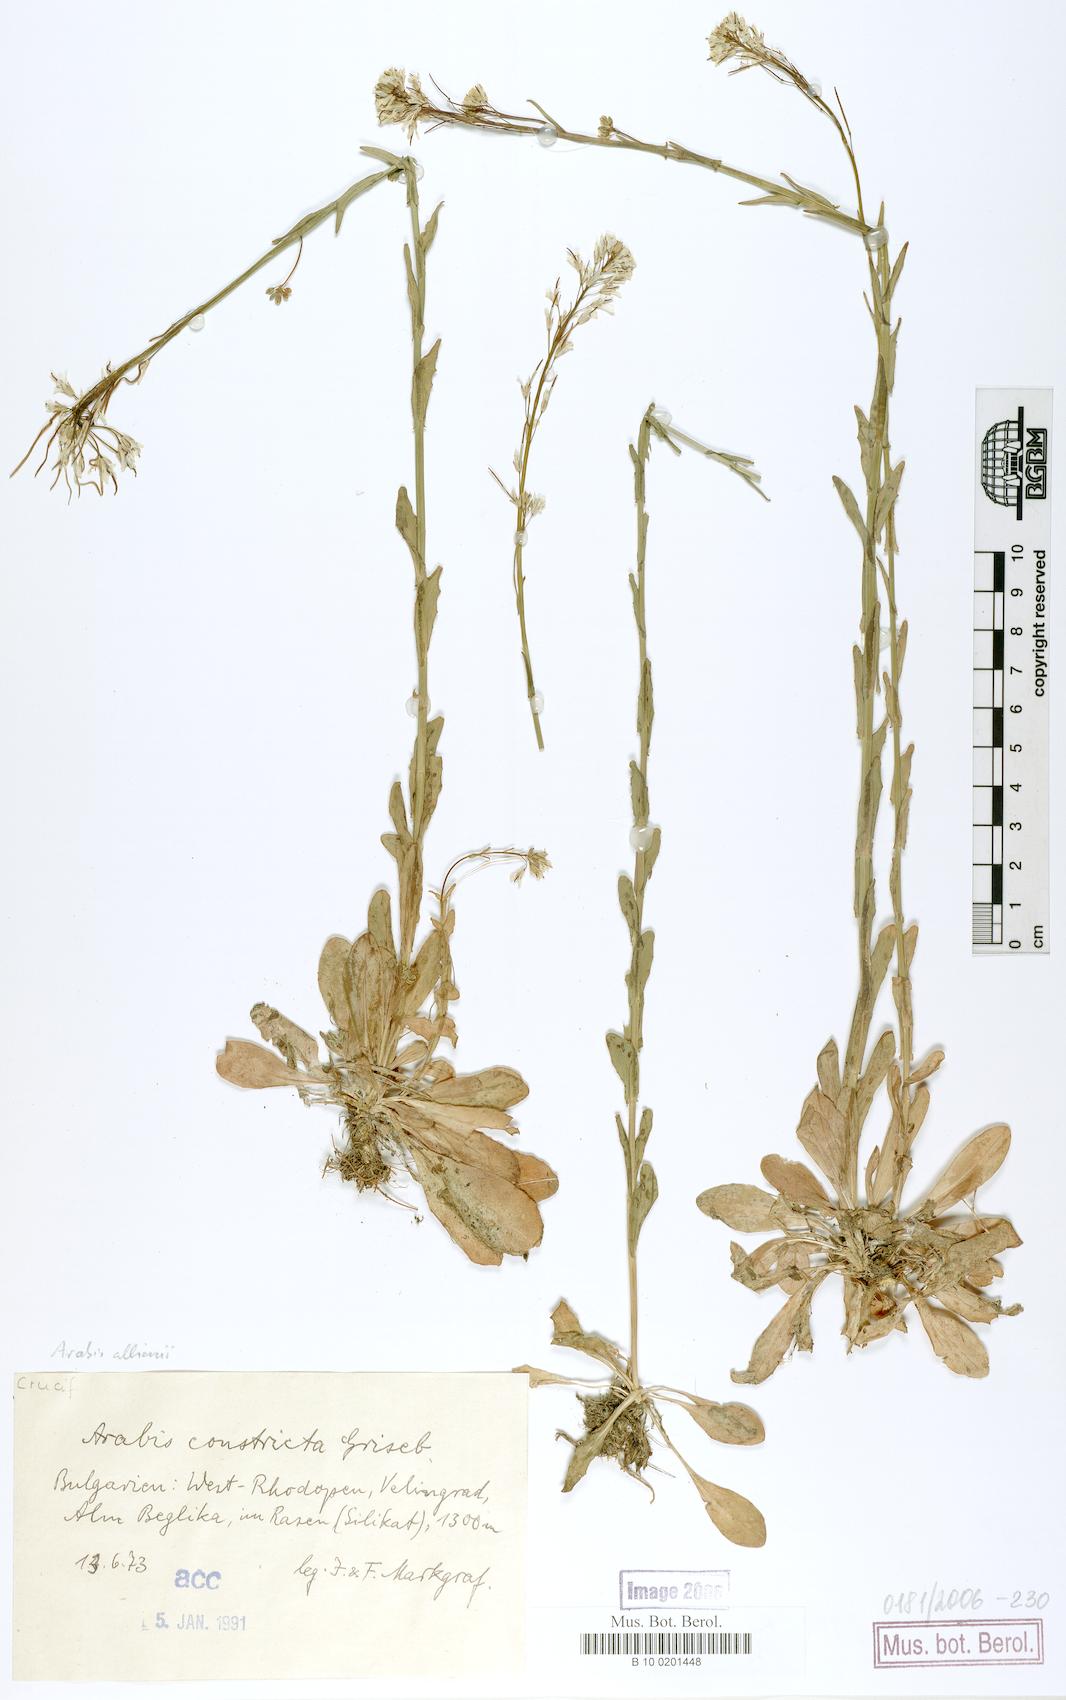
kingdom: Plantae
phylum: Tracheophyta
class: Magnoliopsida
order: Brassicales
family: Brassicaceae
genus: Arabis
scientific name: Arabis allionii
